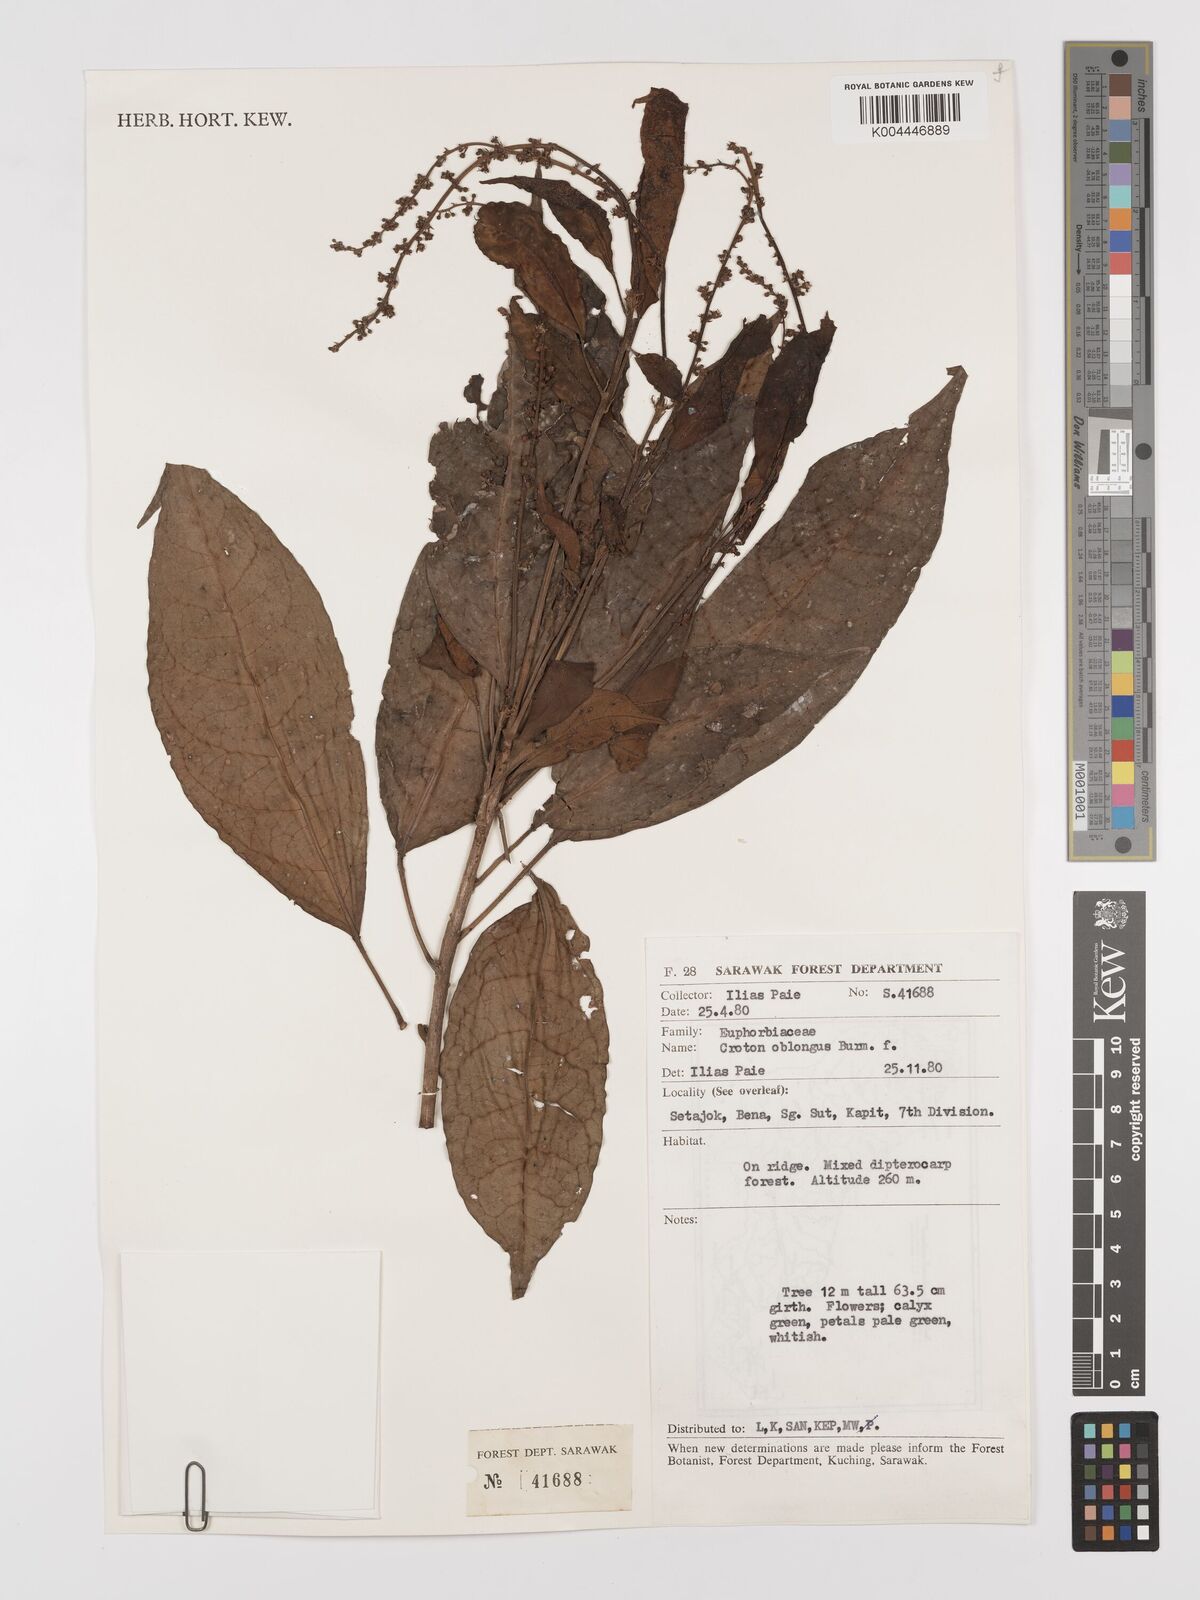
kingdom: Plantae
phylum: Tracheophyta
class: Magnoliopsida
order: Malpighiales
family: Euphorbiaceae
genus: Croton
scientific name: Croton oblongus
